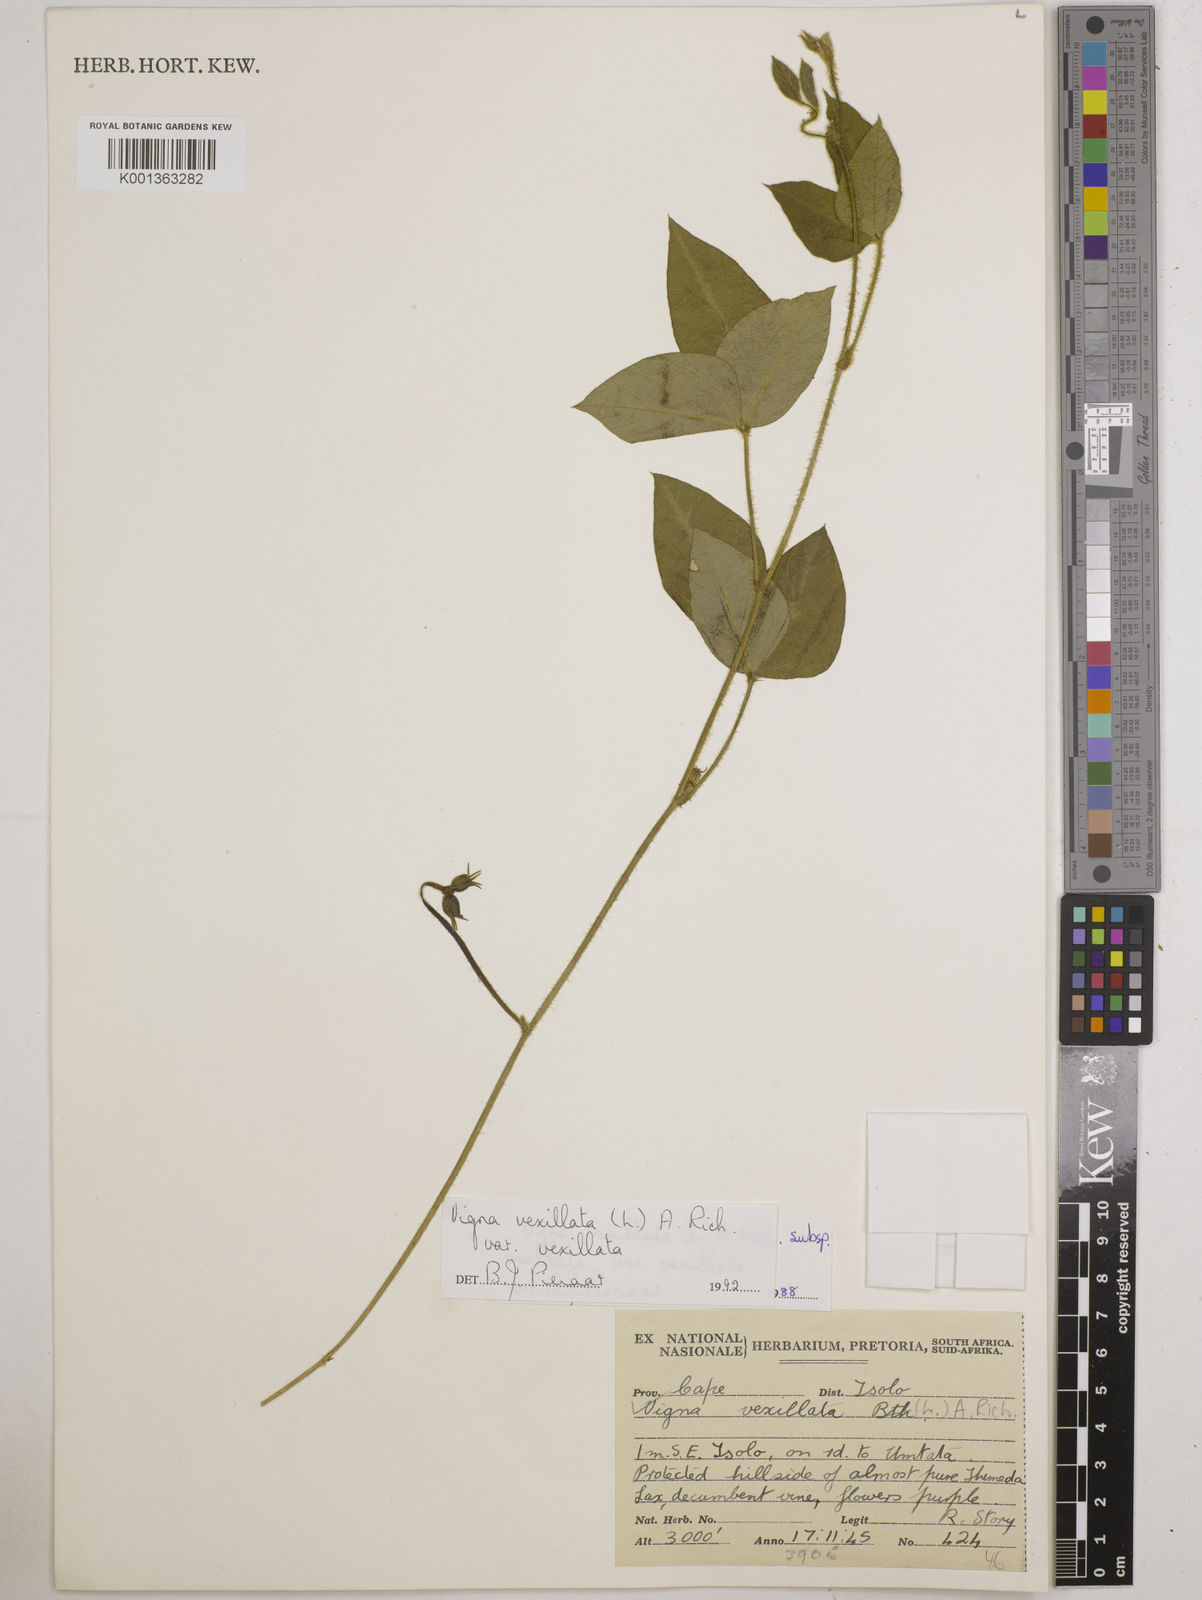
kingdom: Plantae
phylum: Tracheophyta
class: Magnoliopsida
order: Fabales
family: Fabaceae
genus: Vigna
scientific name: Vigna
